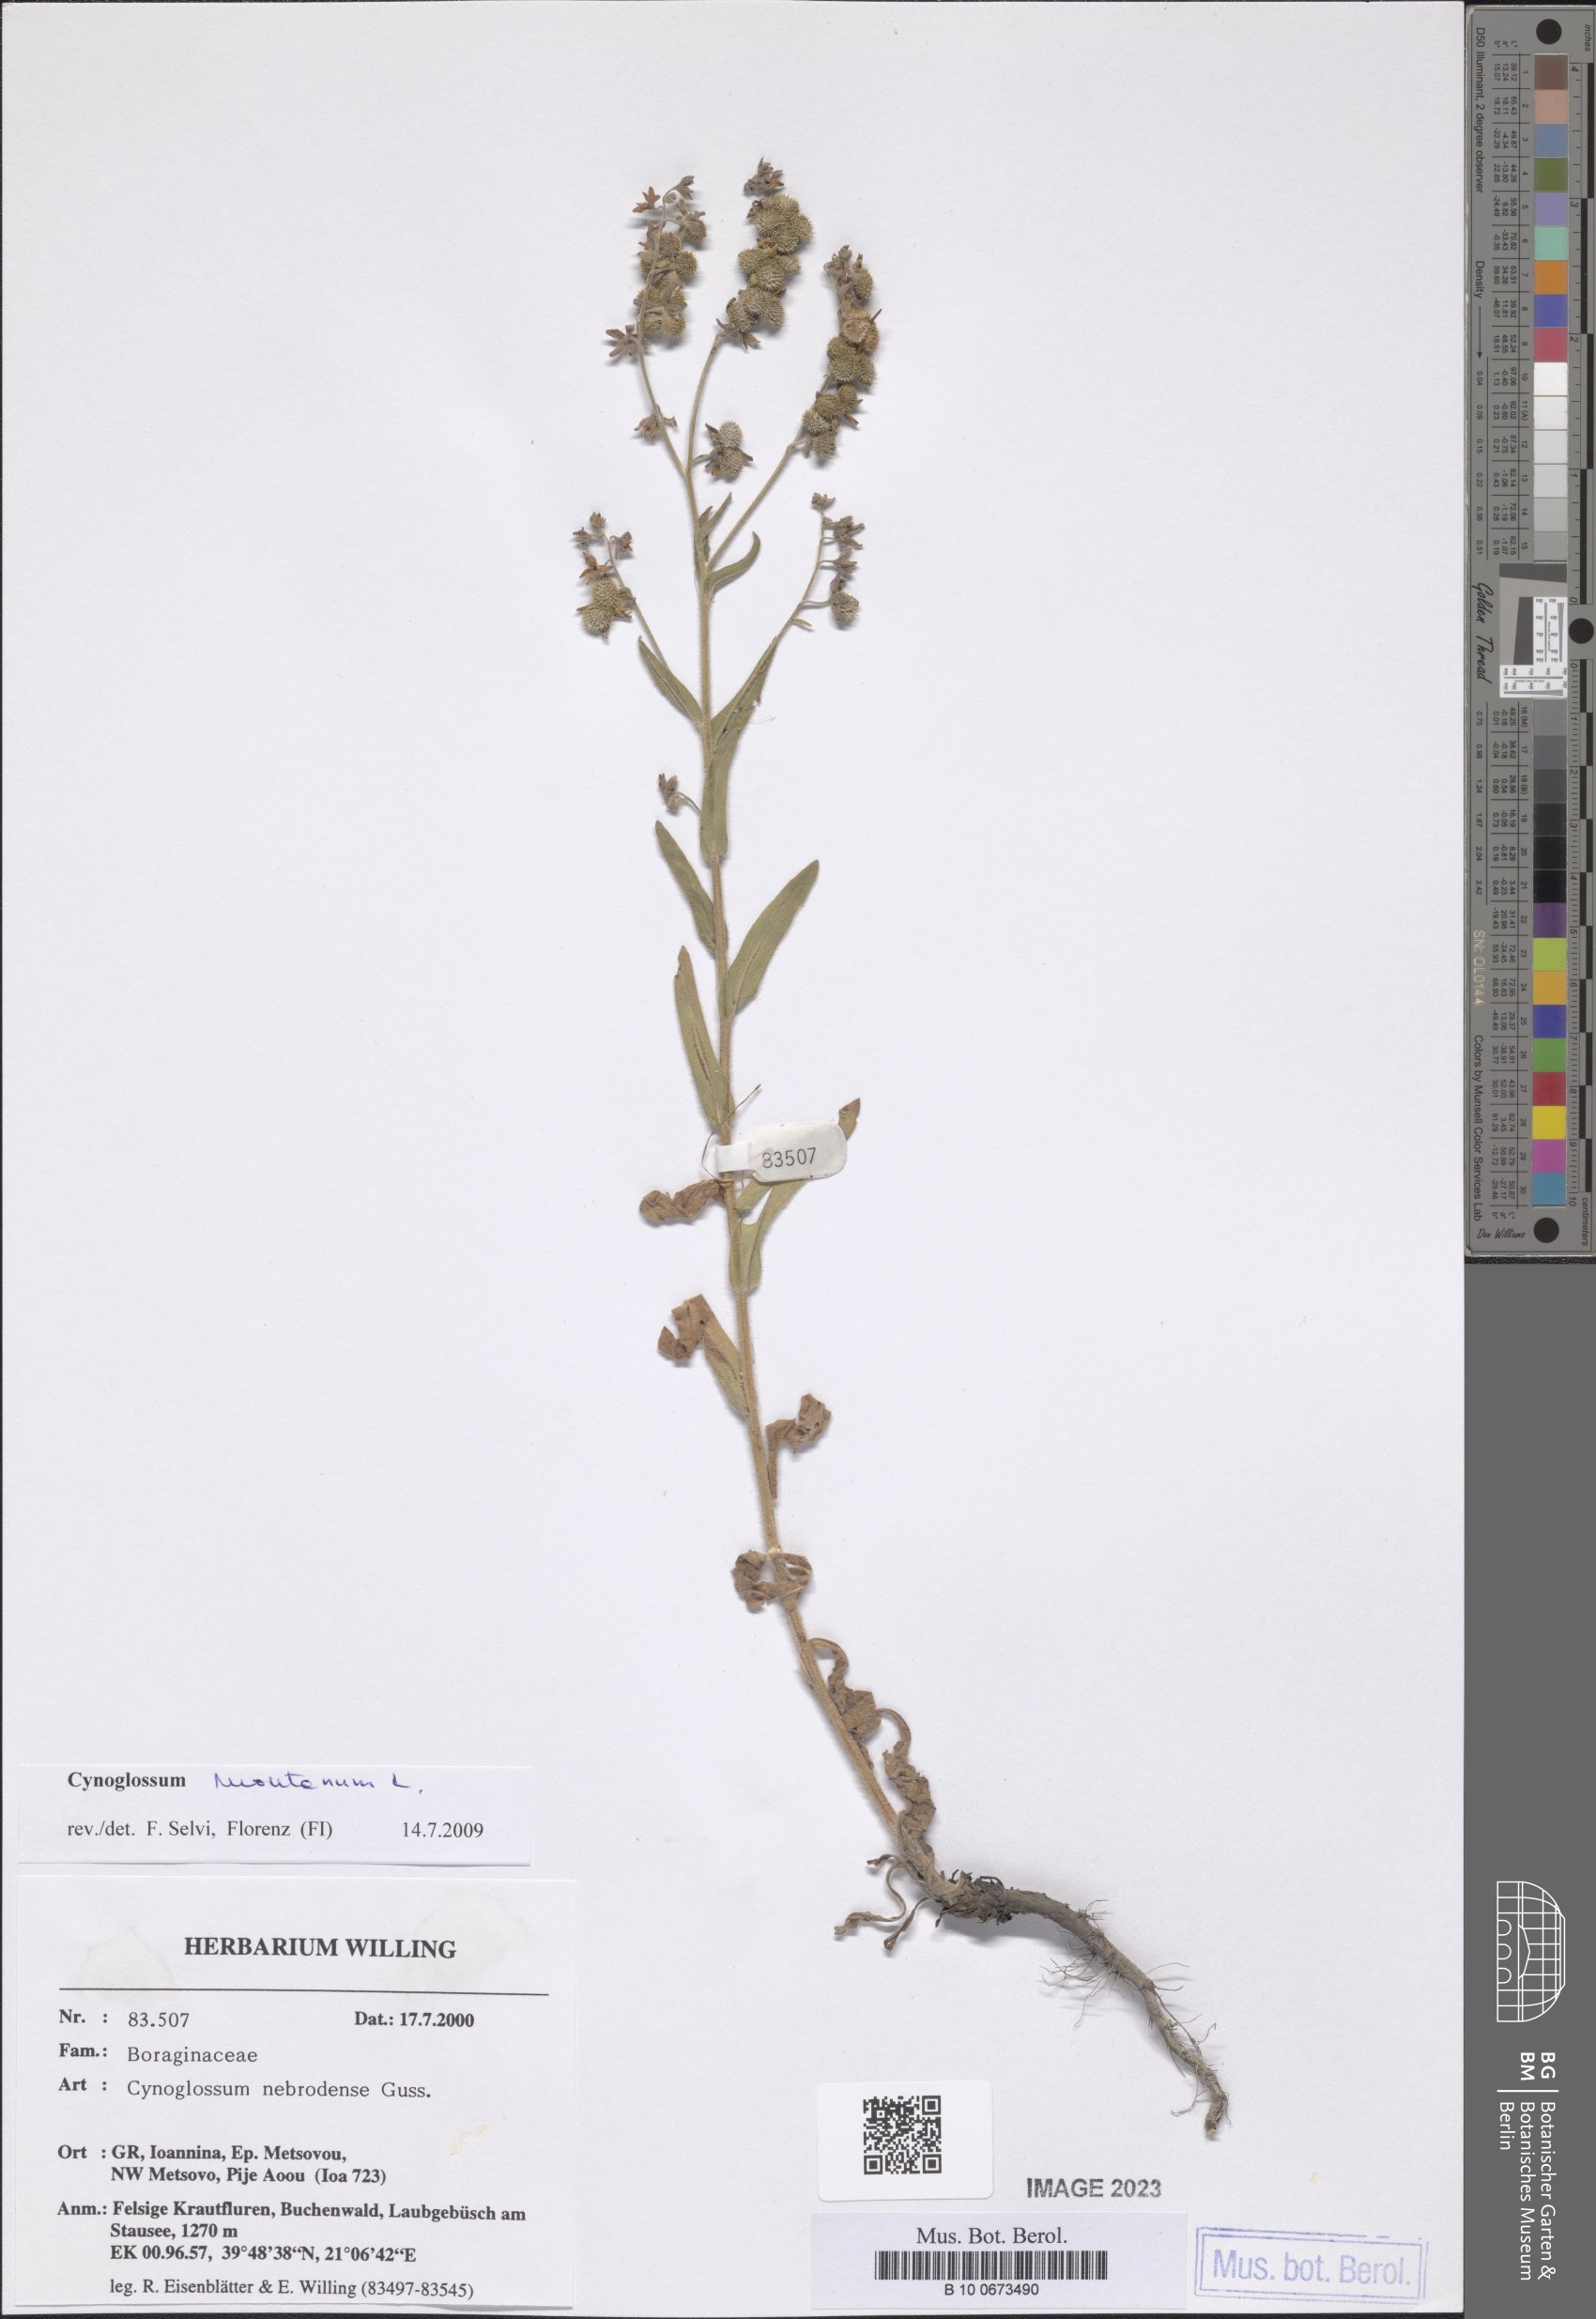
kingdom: Plantae
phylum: Tracheophyta
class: Magnoliopsida
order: Boraginales
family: Boraginaceae
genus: Cynoglossum
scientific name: Cynoglossum montanum
